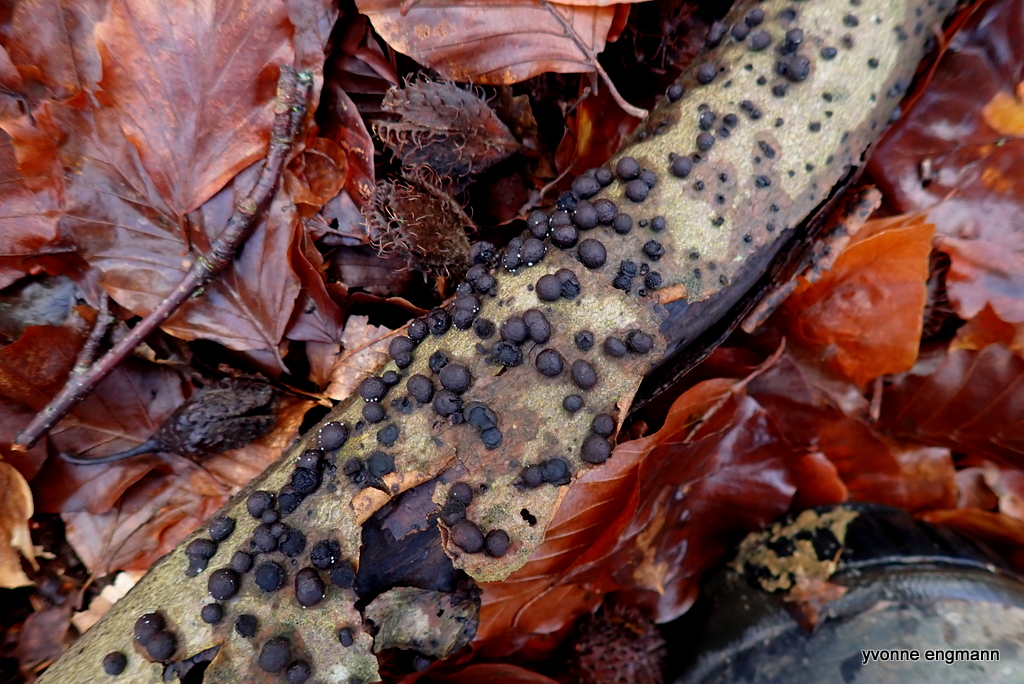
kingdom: Fungi
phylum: Ascomycota
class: Sordariomycetes
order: Xylariales
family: Hypoxylaceae
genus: Hypoxylon
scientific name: Hypoxylon fragiforme
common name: kuljordbær
